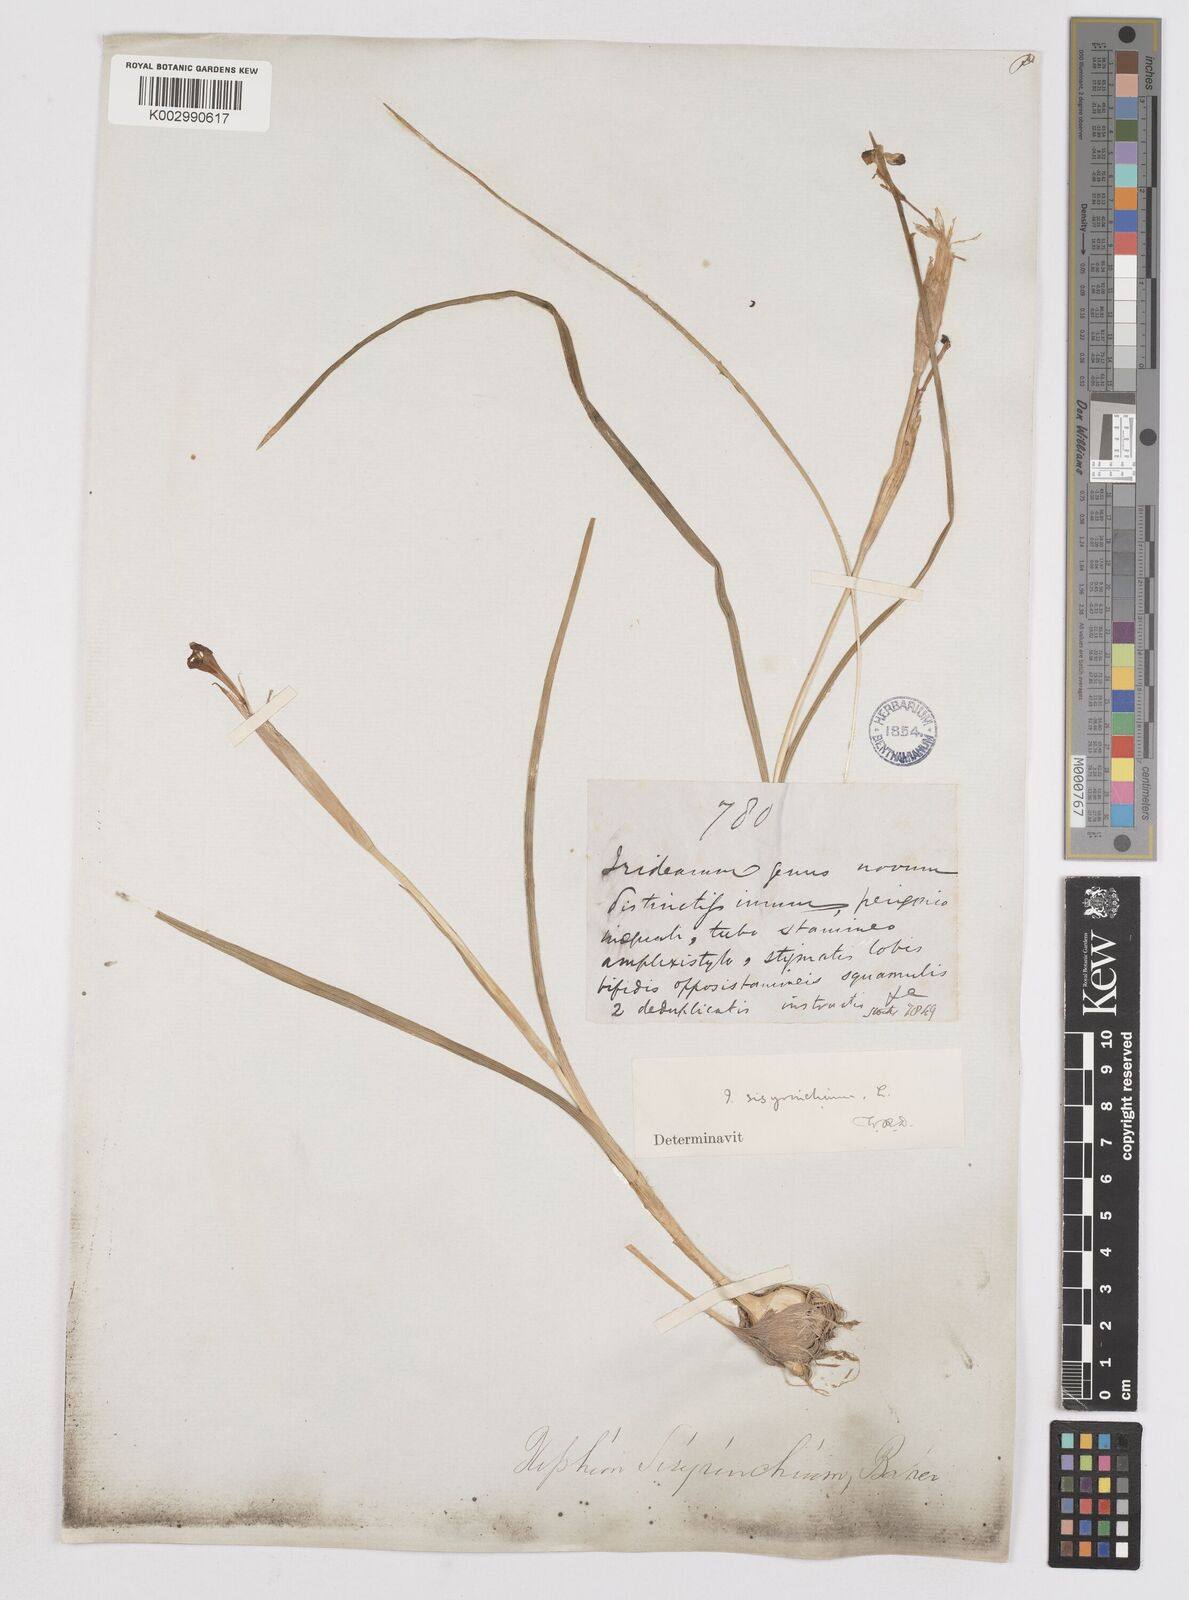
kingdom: Plantae
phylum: Tracheophyta
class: Liliopsida
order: Asparagales
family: Iridaceae
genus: Moraea
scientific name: Moraea sisyrinchium
